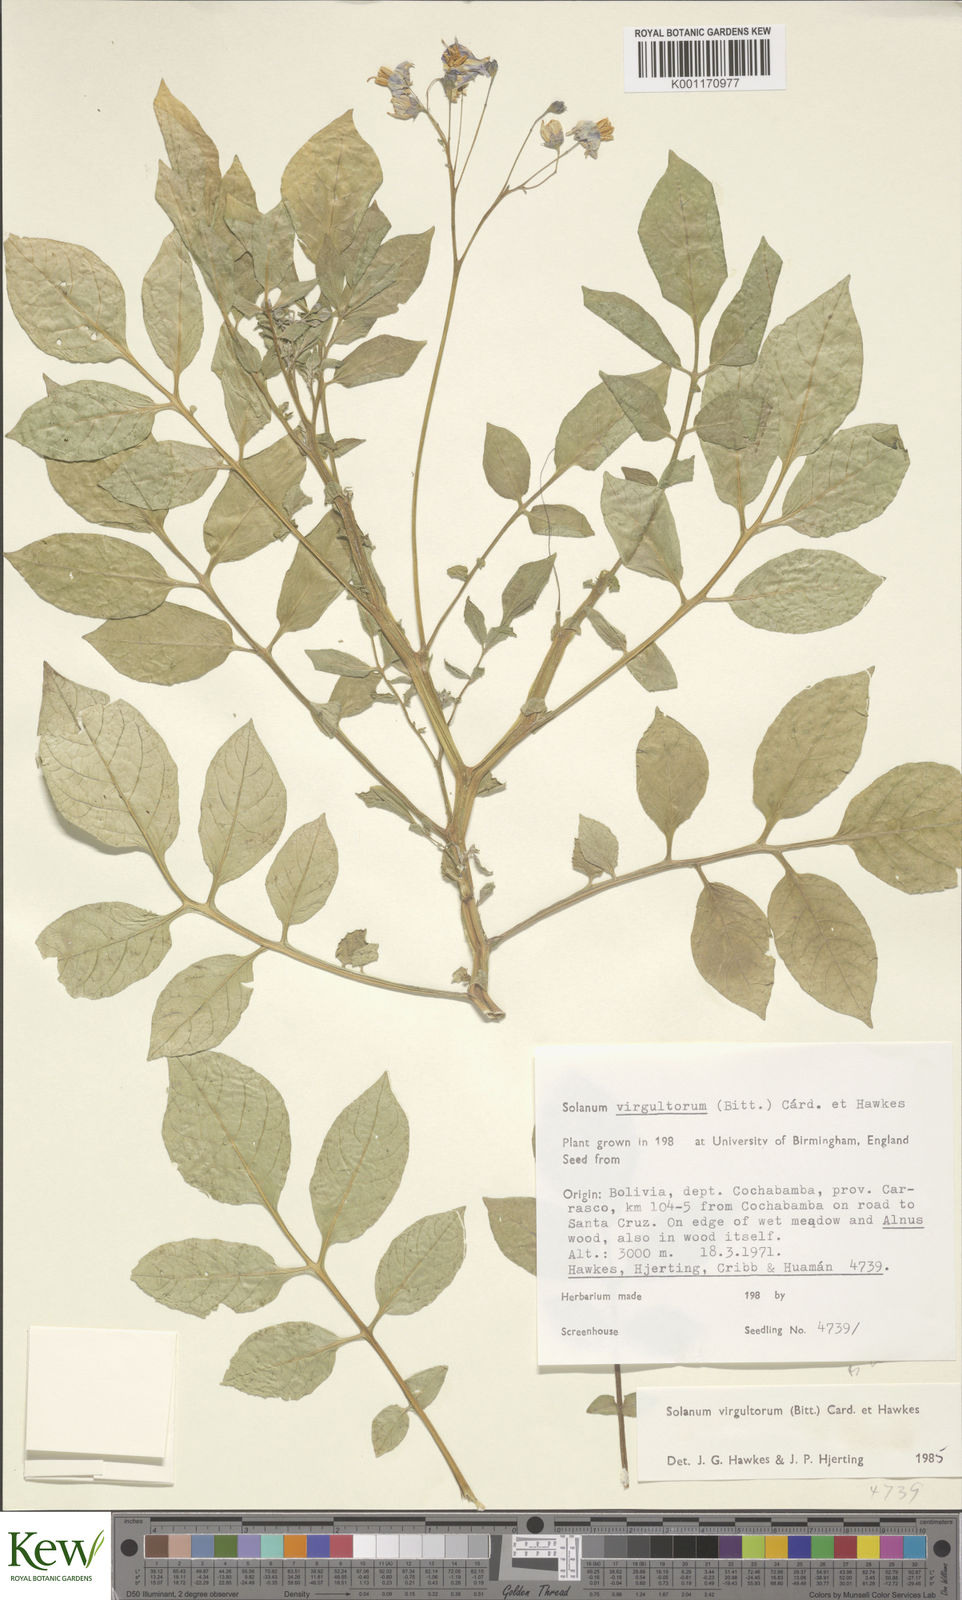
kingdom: Plantae
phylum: Tracheophyta
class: Magnoliopsida
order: Solanales
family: Solanaceae
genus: Solanum
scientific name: Solanum
